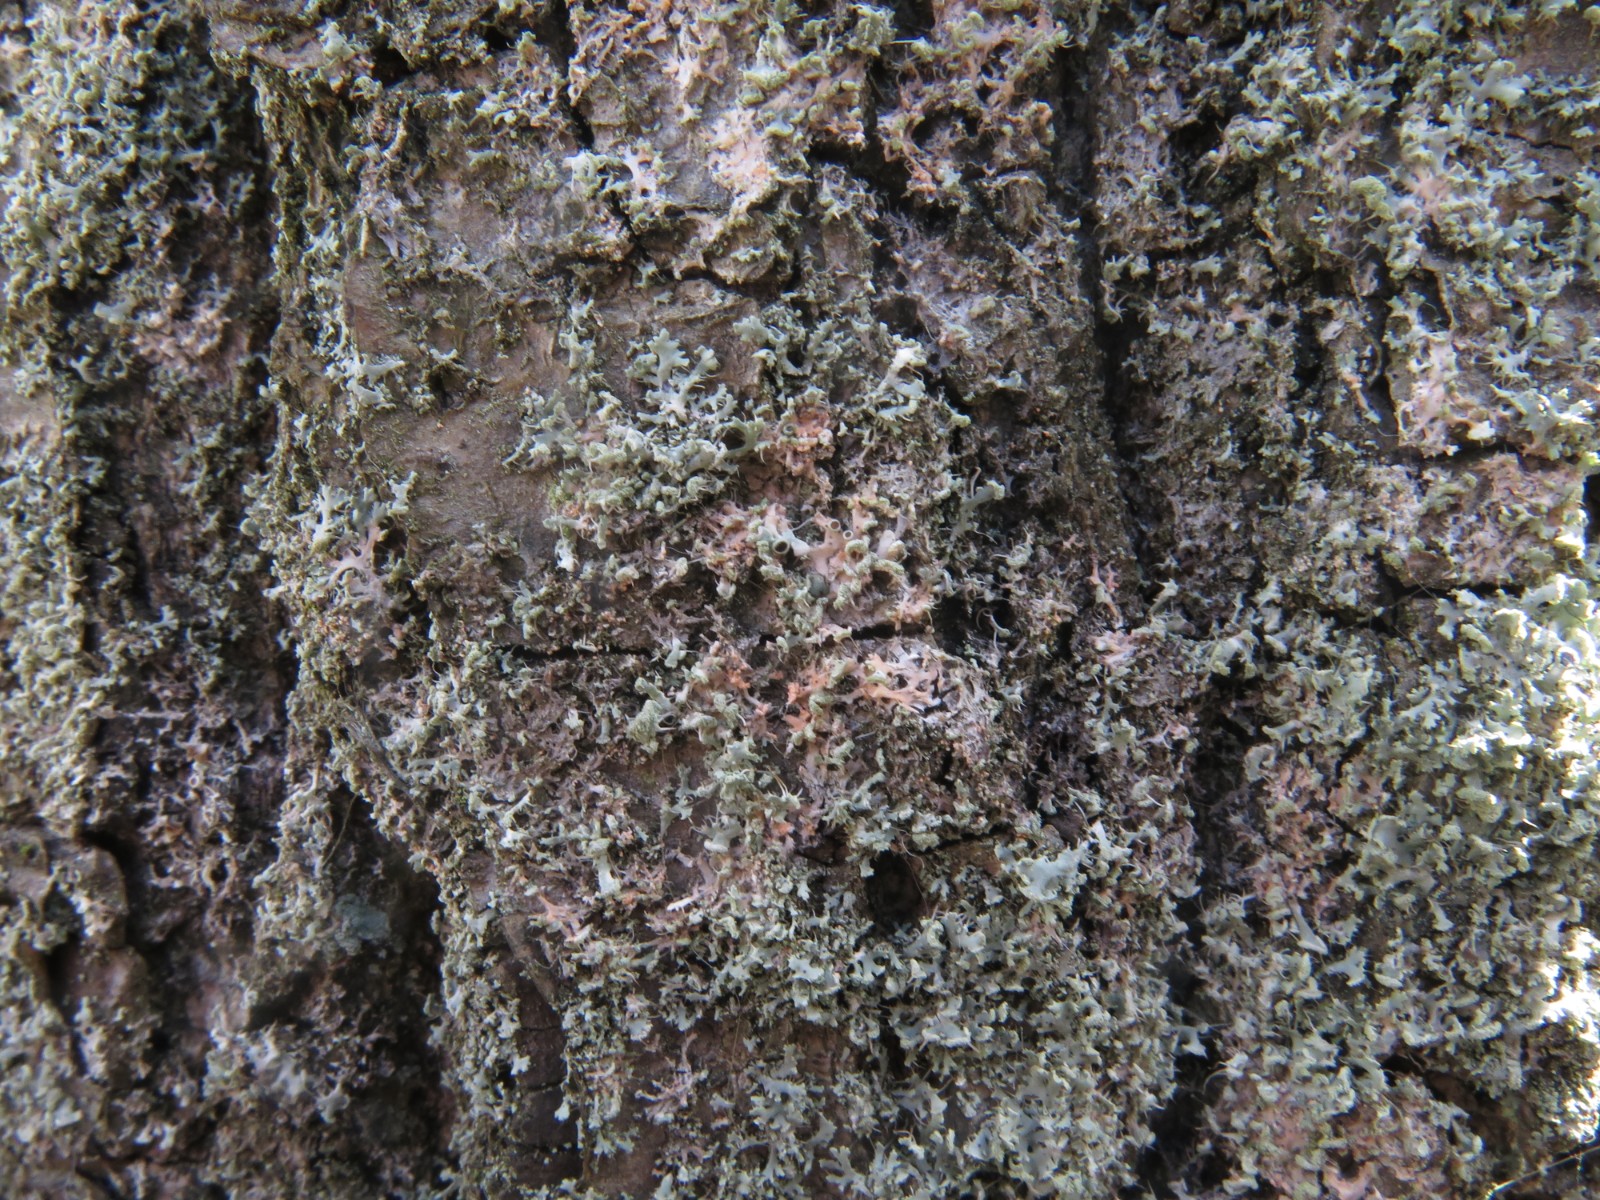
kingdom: Fungi
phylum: Basidiomycota
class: Agaricomycetes
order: Corticiales
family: Corticiaceae
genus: Erythricium
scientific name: Erythricium aurantiacum
